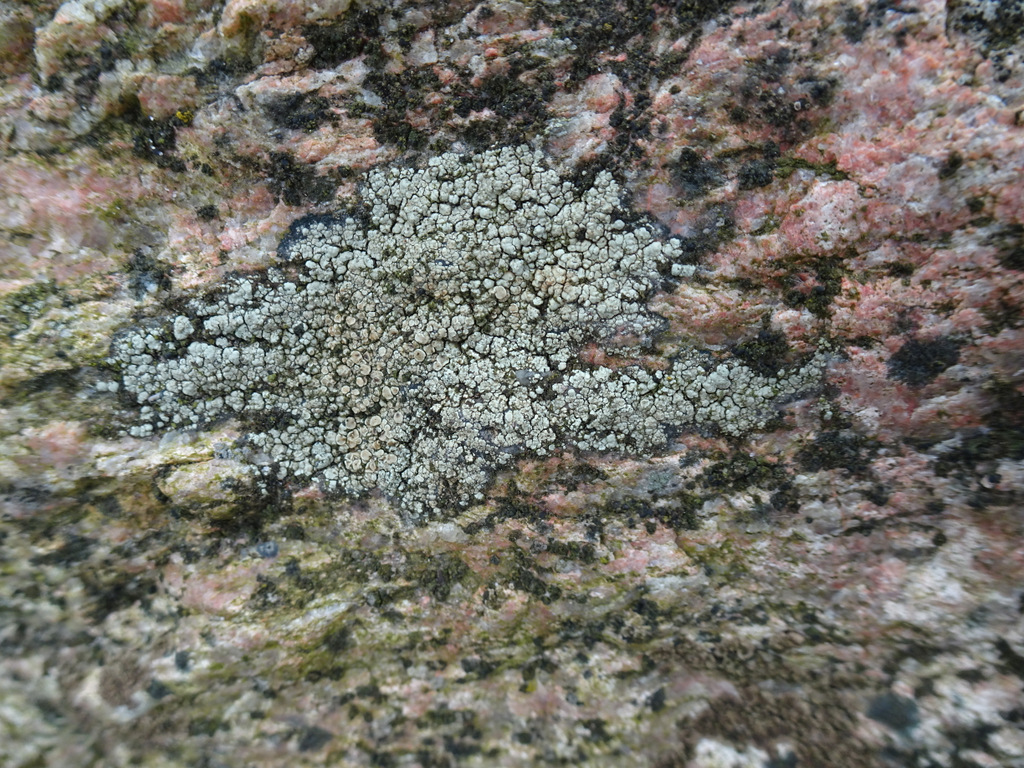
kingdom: Fungi
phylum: Ascomycota
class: Lecanoromycetes
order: Lecanorales
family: Lecanoraceae
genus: Lecanora
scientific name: Lecanora polytropa
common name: bleggrøn kantskivelav
